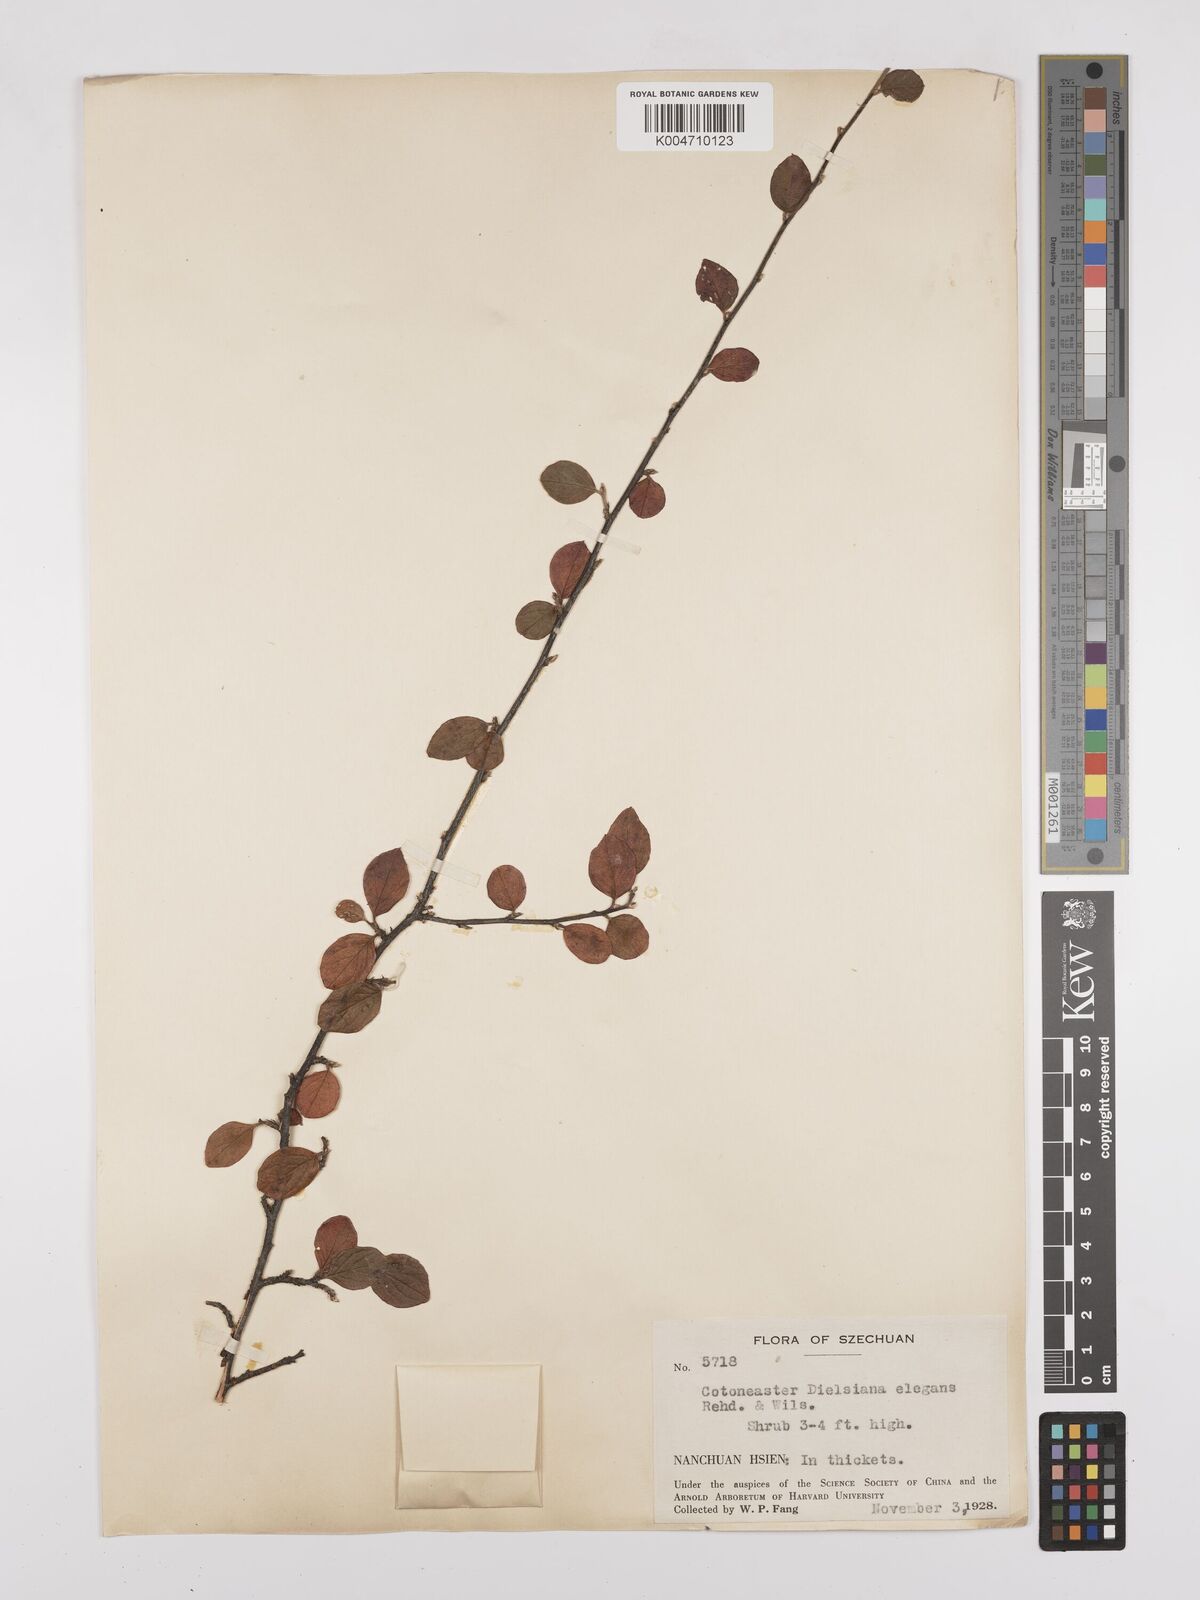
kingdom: Plantae
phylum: Tracheophyta
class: Magnoliopsida
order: Rosales
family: Rosaceae
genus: Cotoneaster
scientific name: Cotoneaster dielsianus
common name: Diels's cotoneaster
